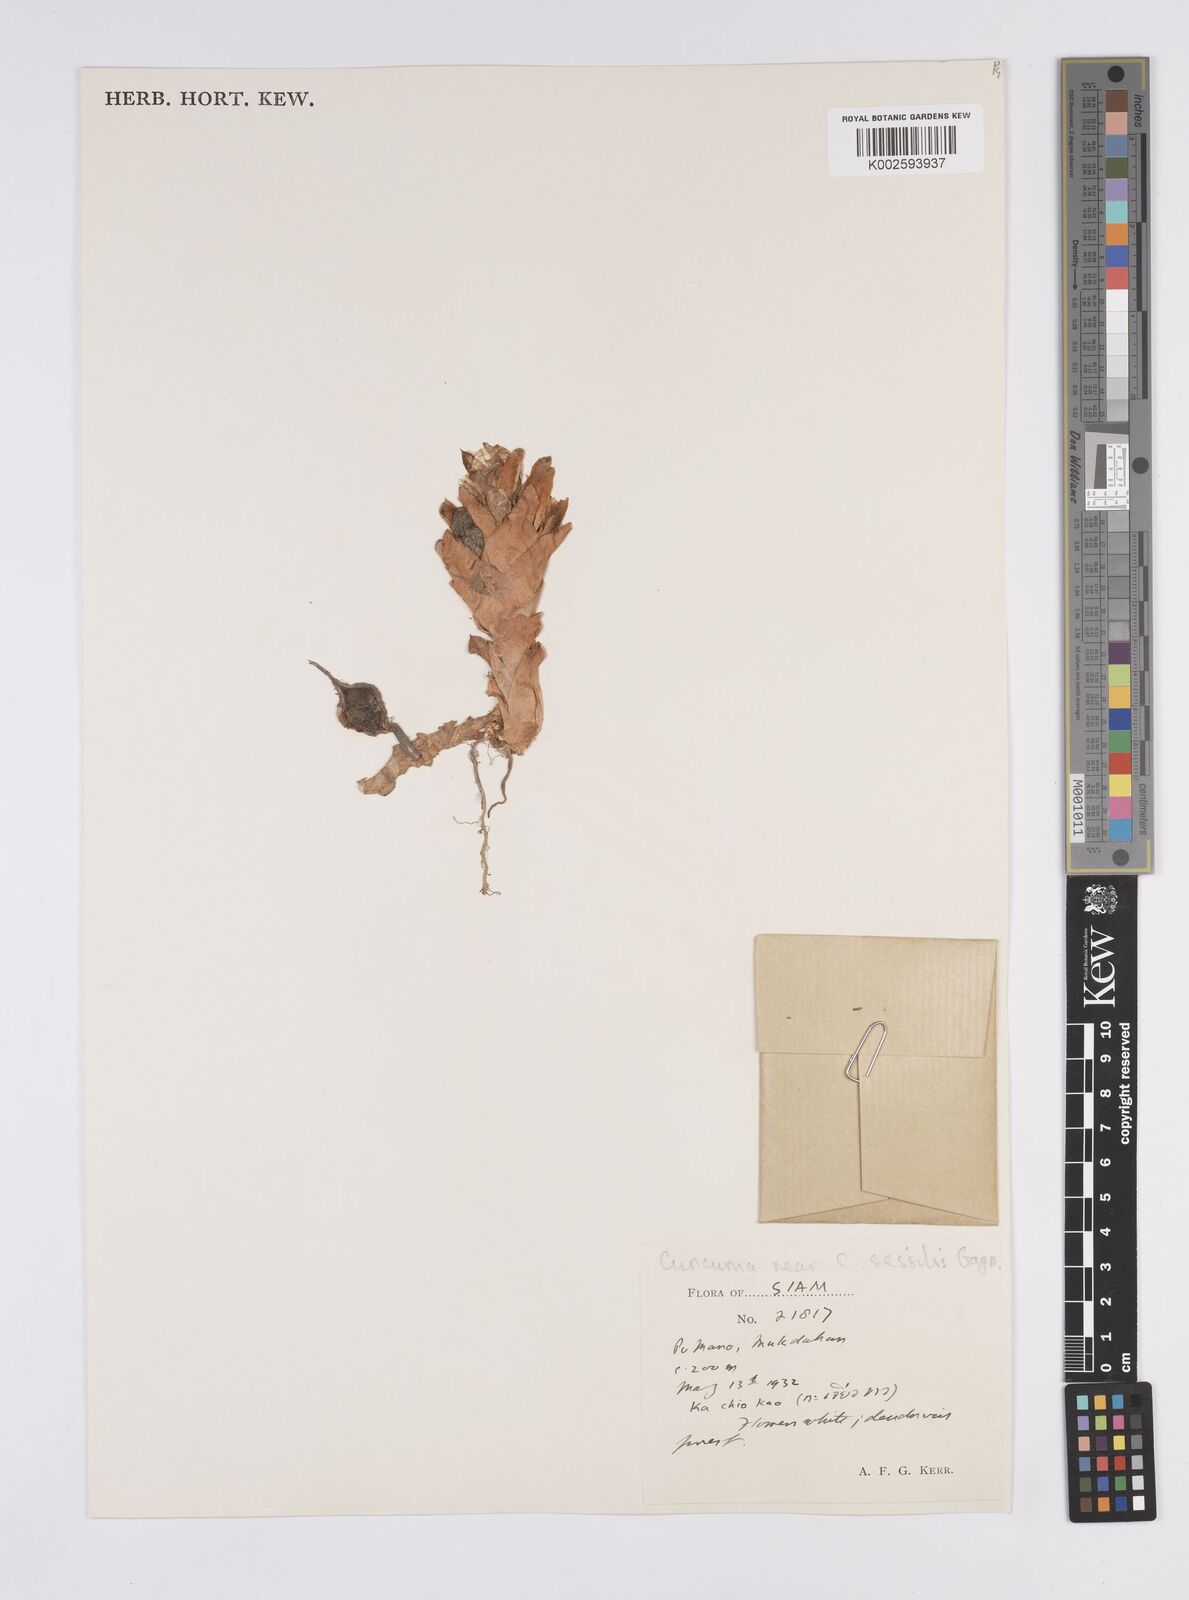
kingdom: Plantae
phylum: Tracheophyta
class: Liliopsida
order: Zingiberales
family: Zingiberaceae
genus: Curcuma
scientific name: Curcuma sessilis
